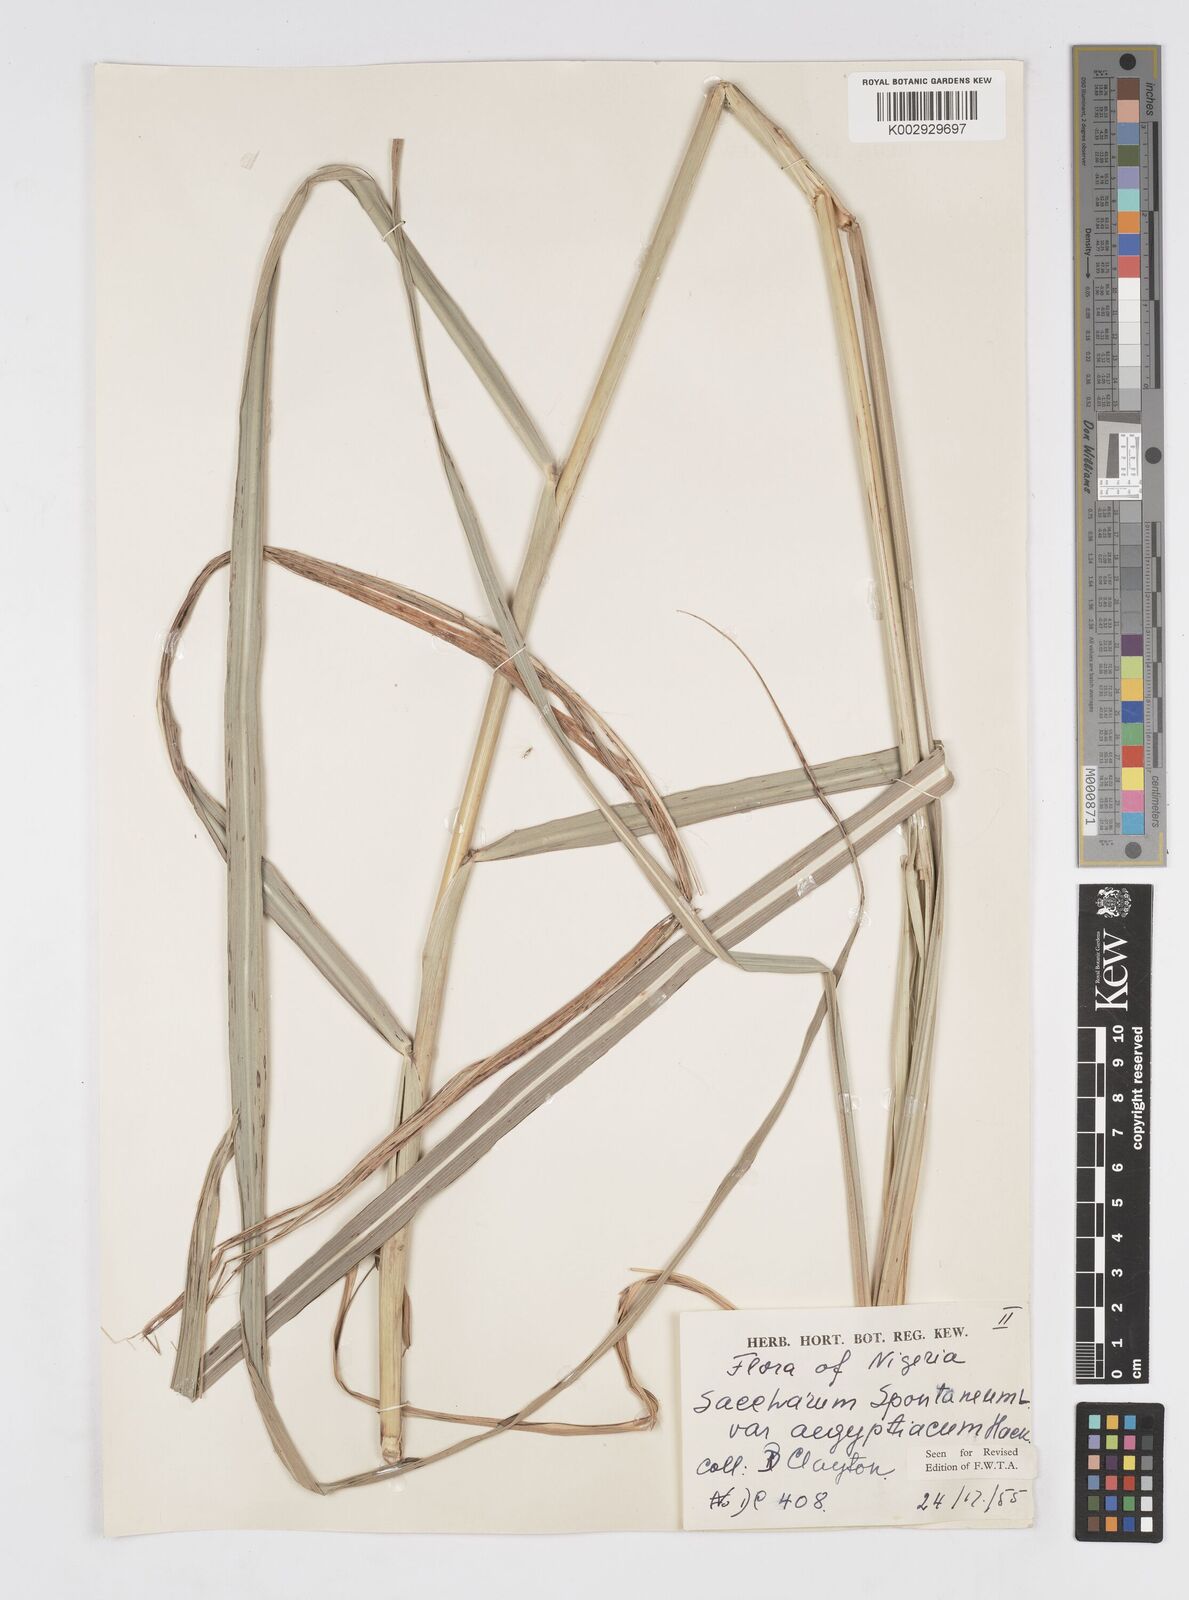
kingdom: Plantae
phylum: Tracheophyta
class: Liliopsida
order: Poales
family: Poaceae
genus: Saccharum
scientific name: Saccharum spontaneum
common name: Wild sugarcane
